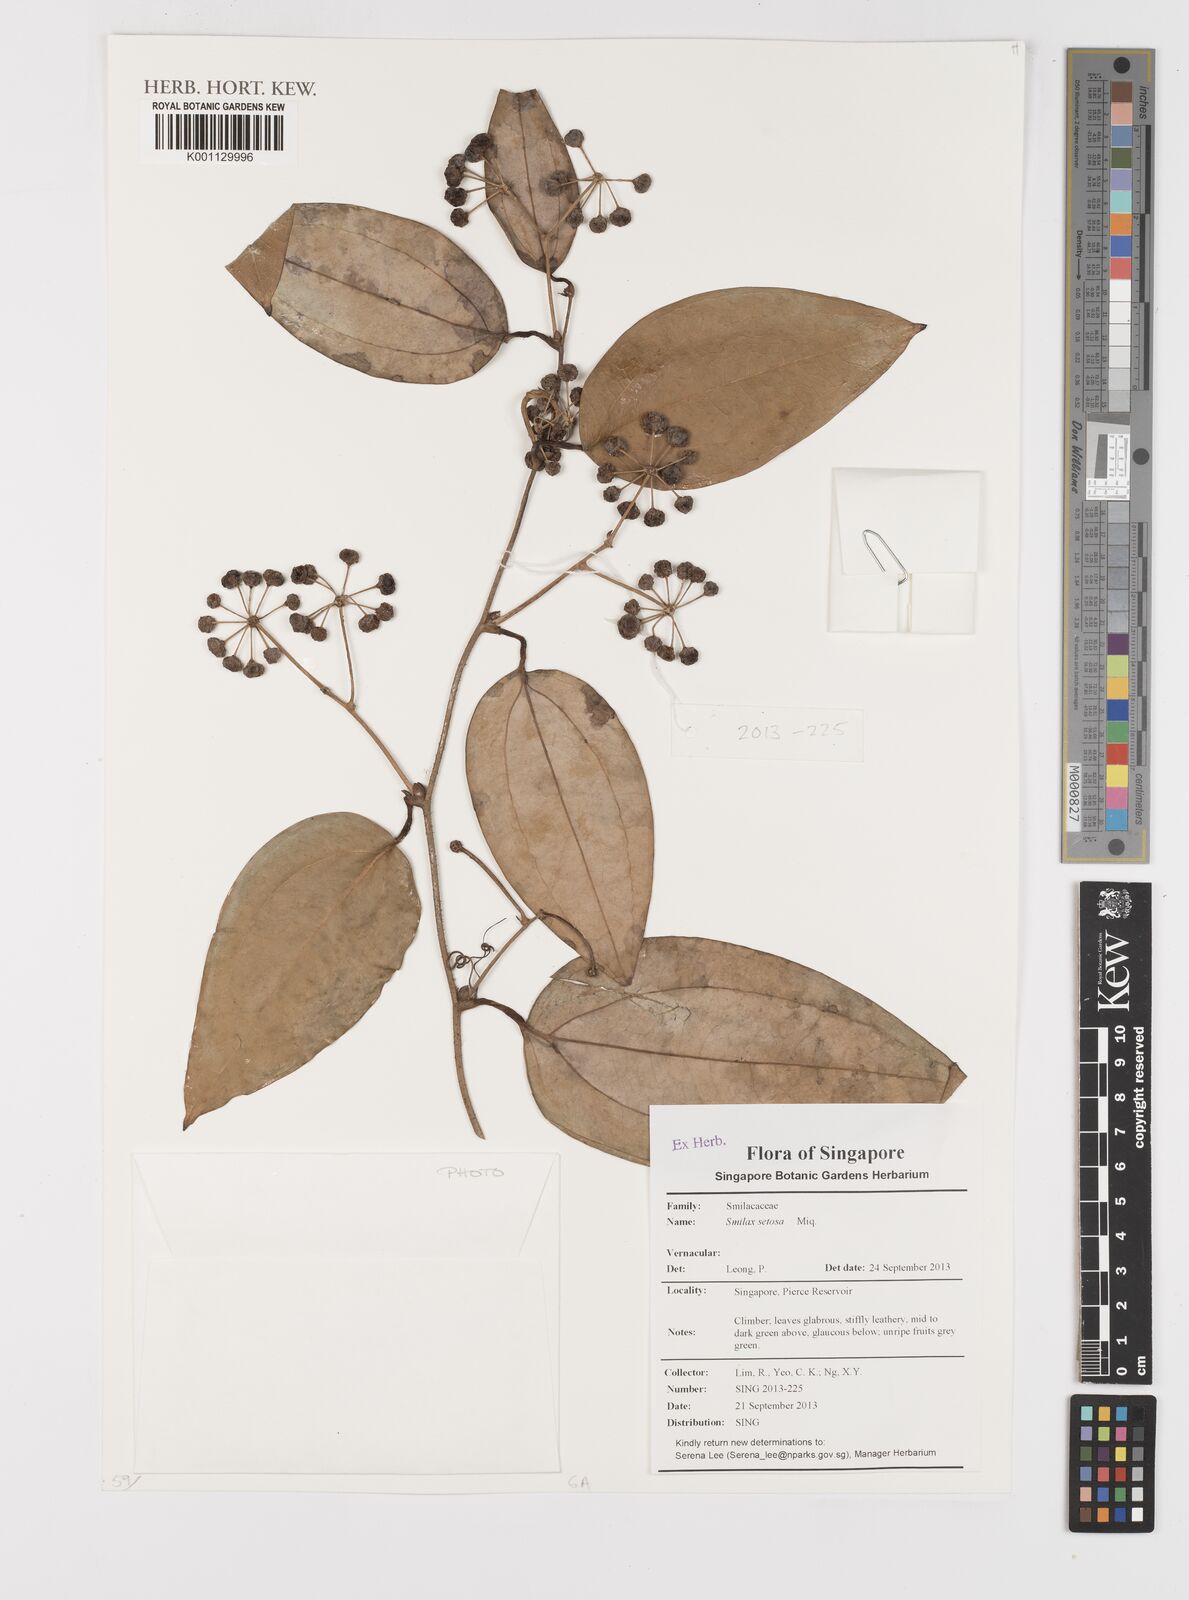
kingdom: Plantae
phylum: Tracheophyta
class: Liliopsida
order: Liliales
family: Smilacaceae
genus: Smilax
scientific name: Smilax setosa
